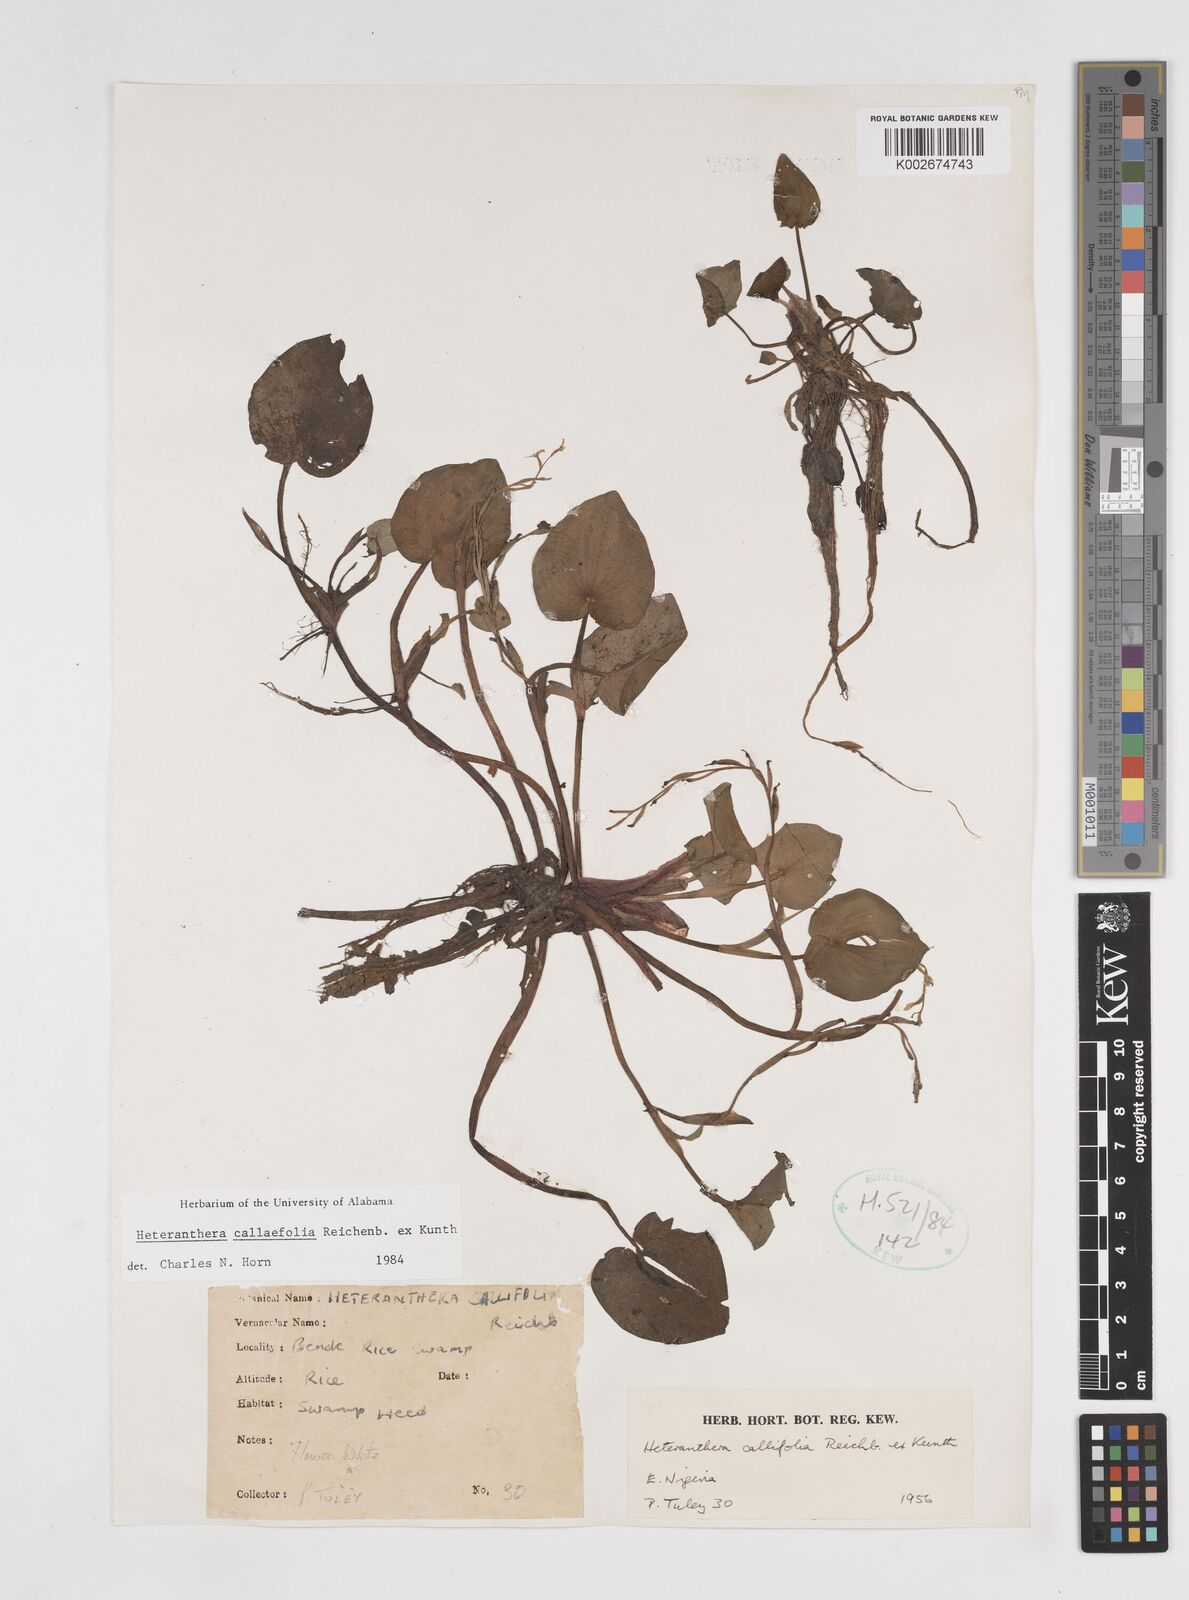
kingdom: Plantae
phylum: Tracheophyta
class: Liliopsida
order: Commelinales
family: Pontederiaceae
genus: Heteranthera
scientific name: Heteranthera callifolia
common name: Mud plantain
